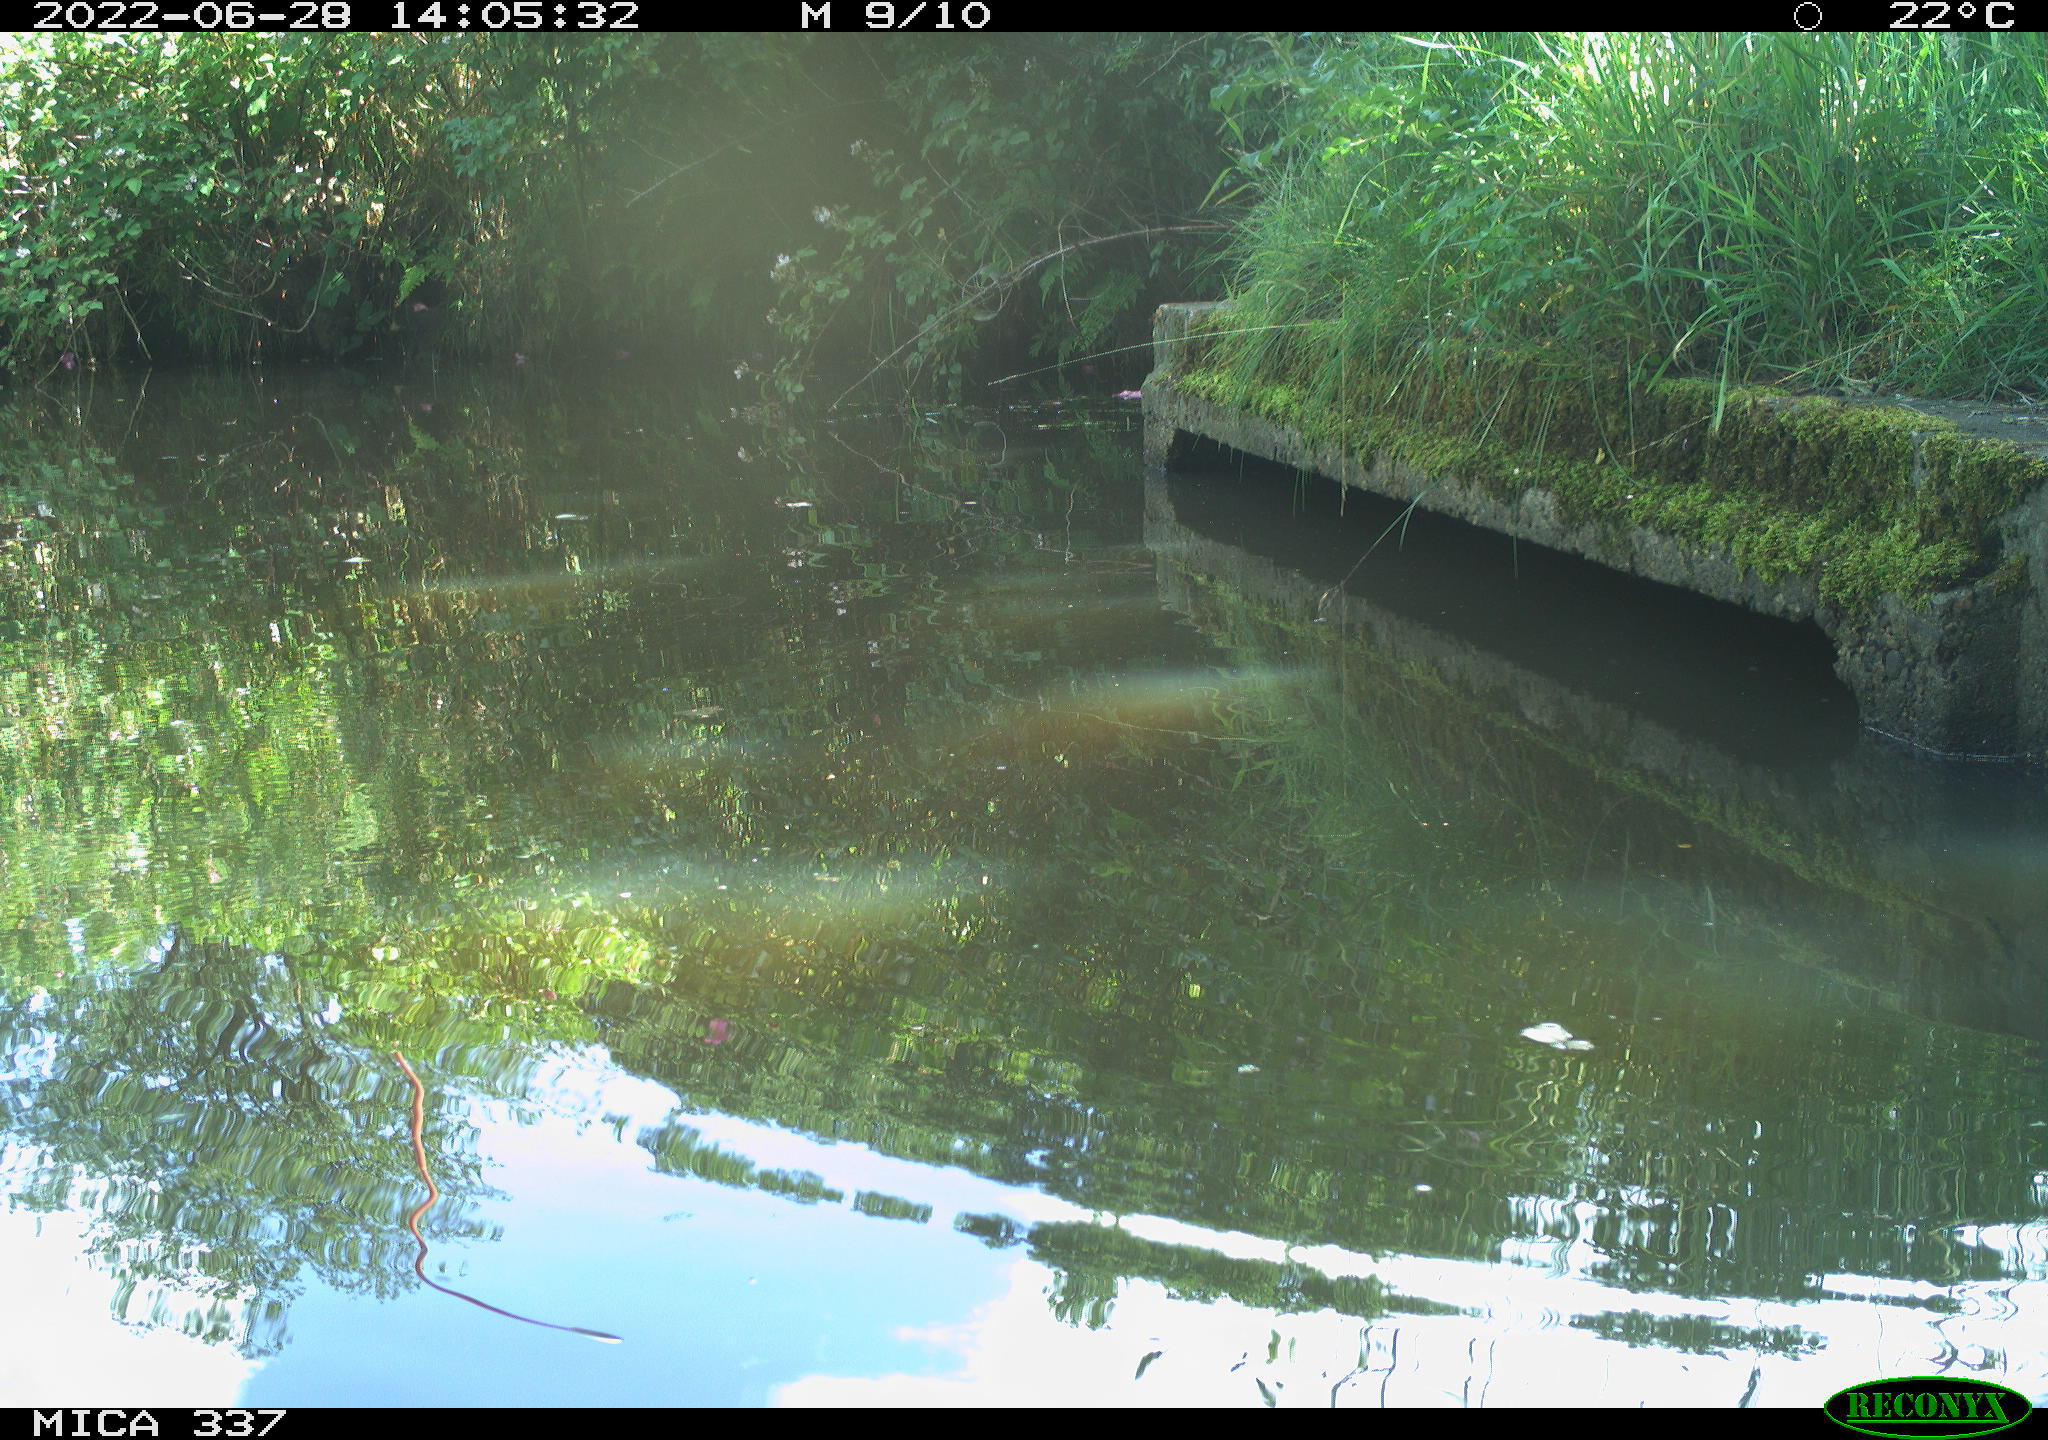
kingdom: Animalia
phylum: Chordata
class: Aves
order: Gruiformes
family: Rallidae
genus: Gallinula
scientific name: Gallinula chloropus
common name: Common moorhen
